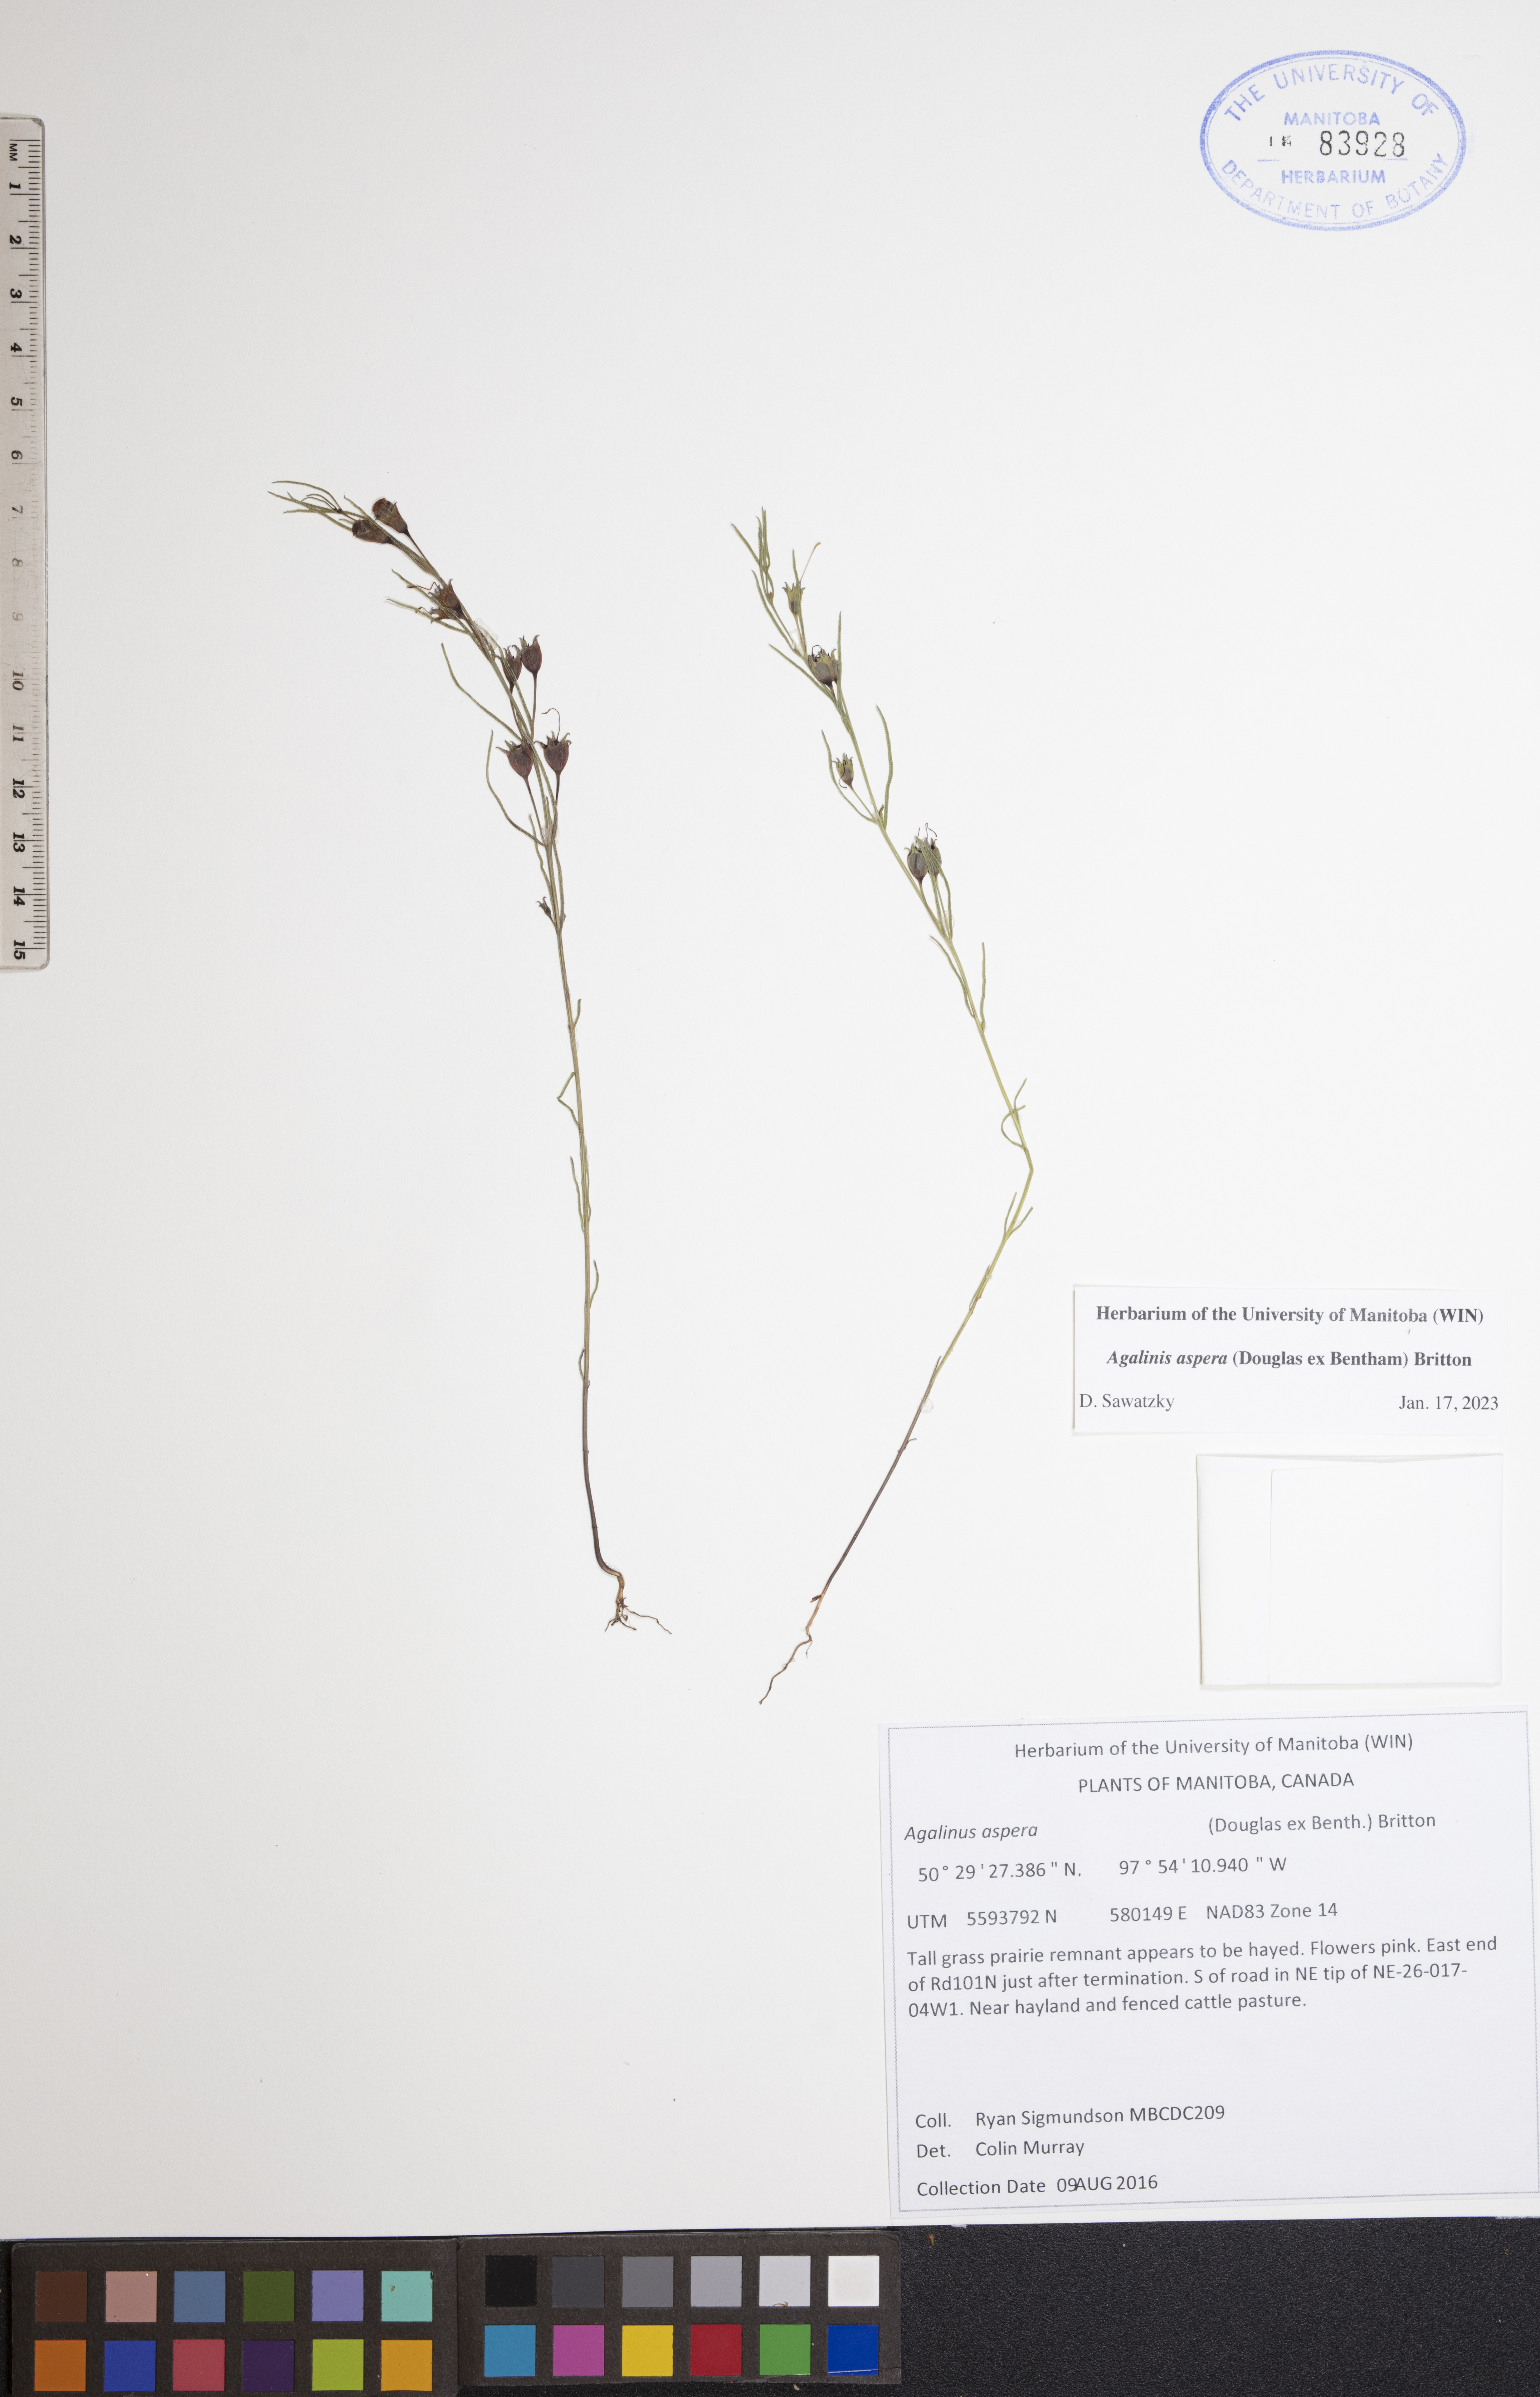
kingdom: Plantae
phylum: Tracheophyta
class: Magnoliopsida
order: Lamiales
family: Orobanchaceae
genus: Agalinis
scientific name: Agalinis aspera
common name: Rough agalinis
